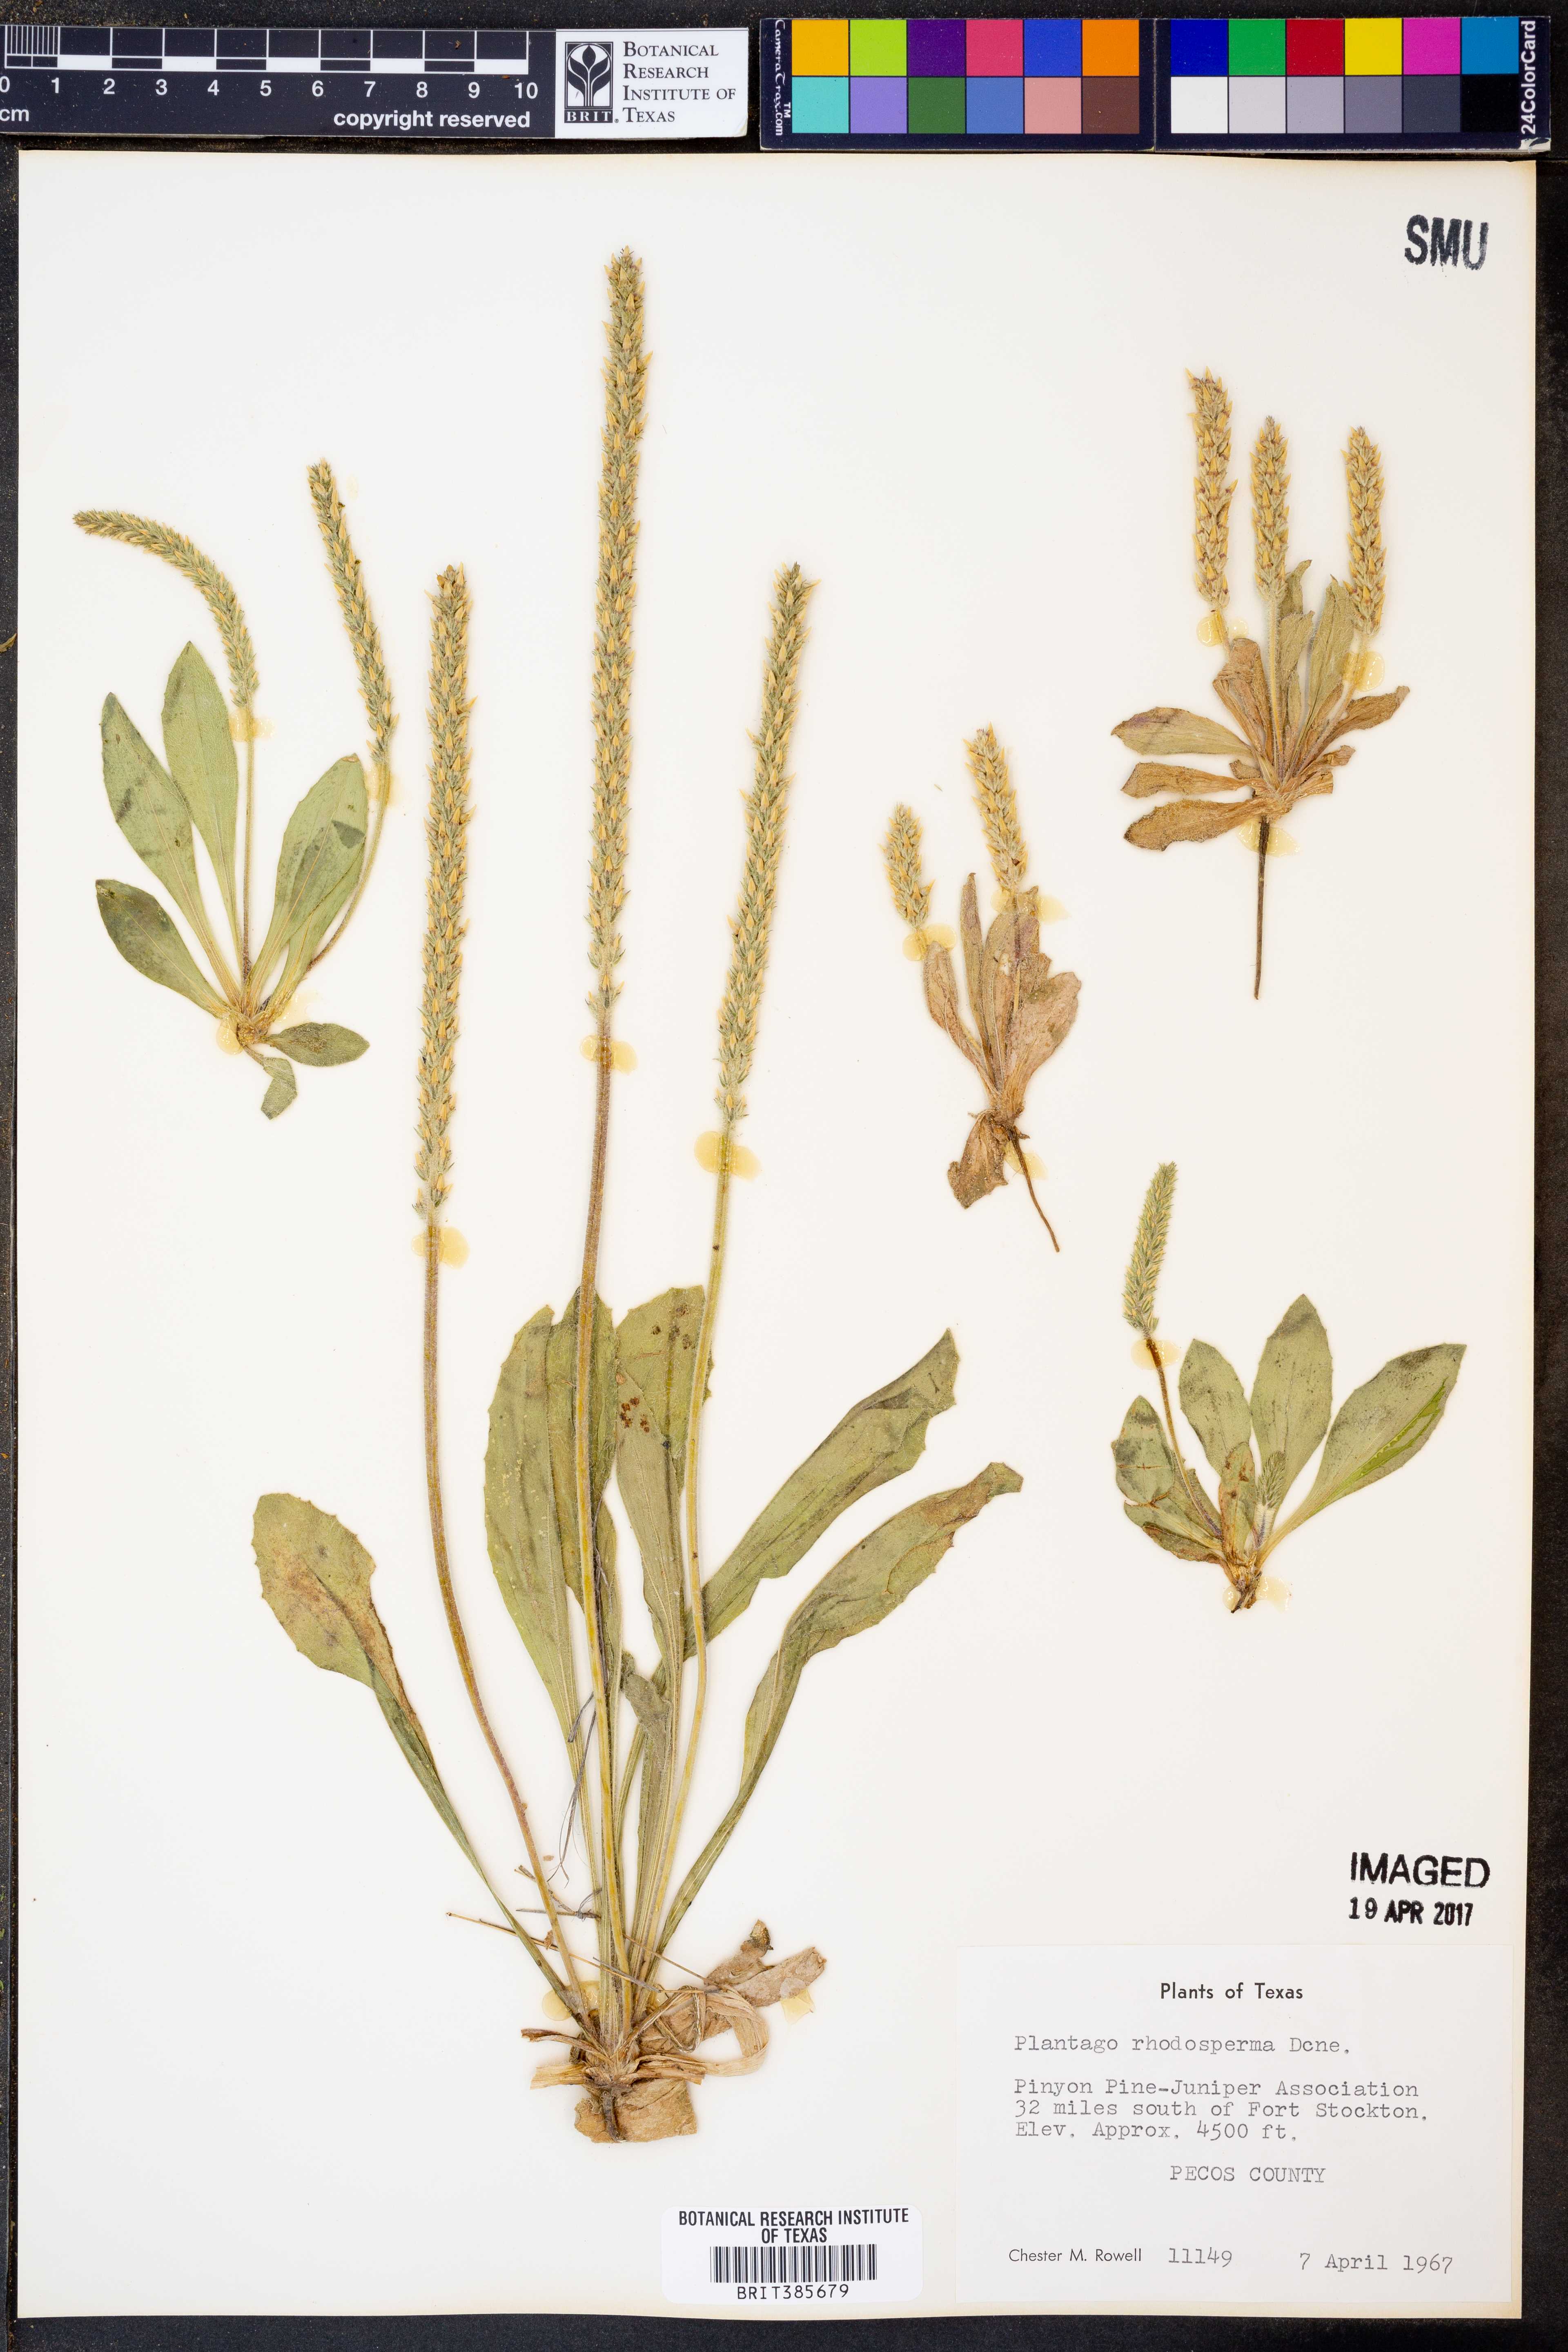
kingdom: Plantae
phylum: Tracheophyta
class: Magnoliopsida
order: Lamiales
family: Plantaginaceae
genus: Plantago
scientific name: Plantago rhodosperma
